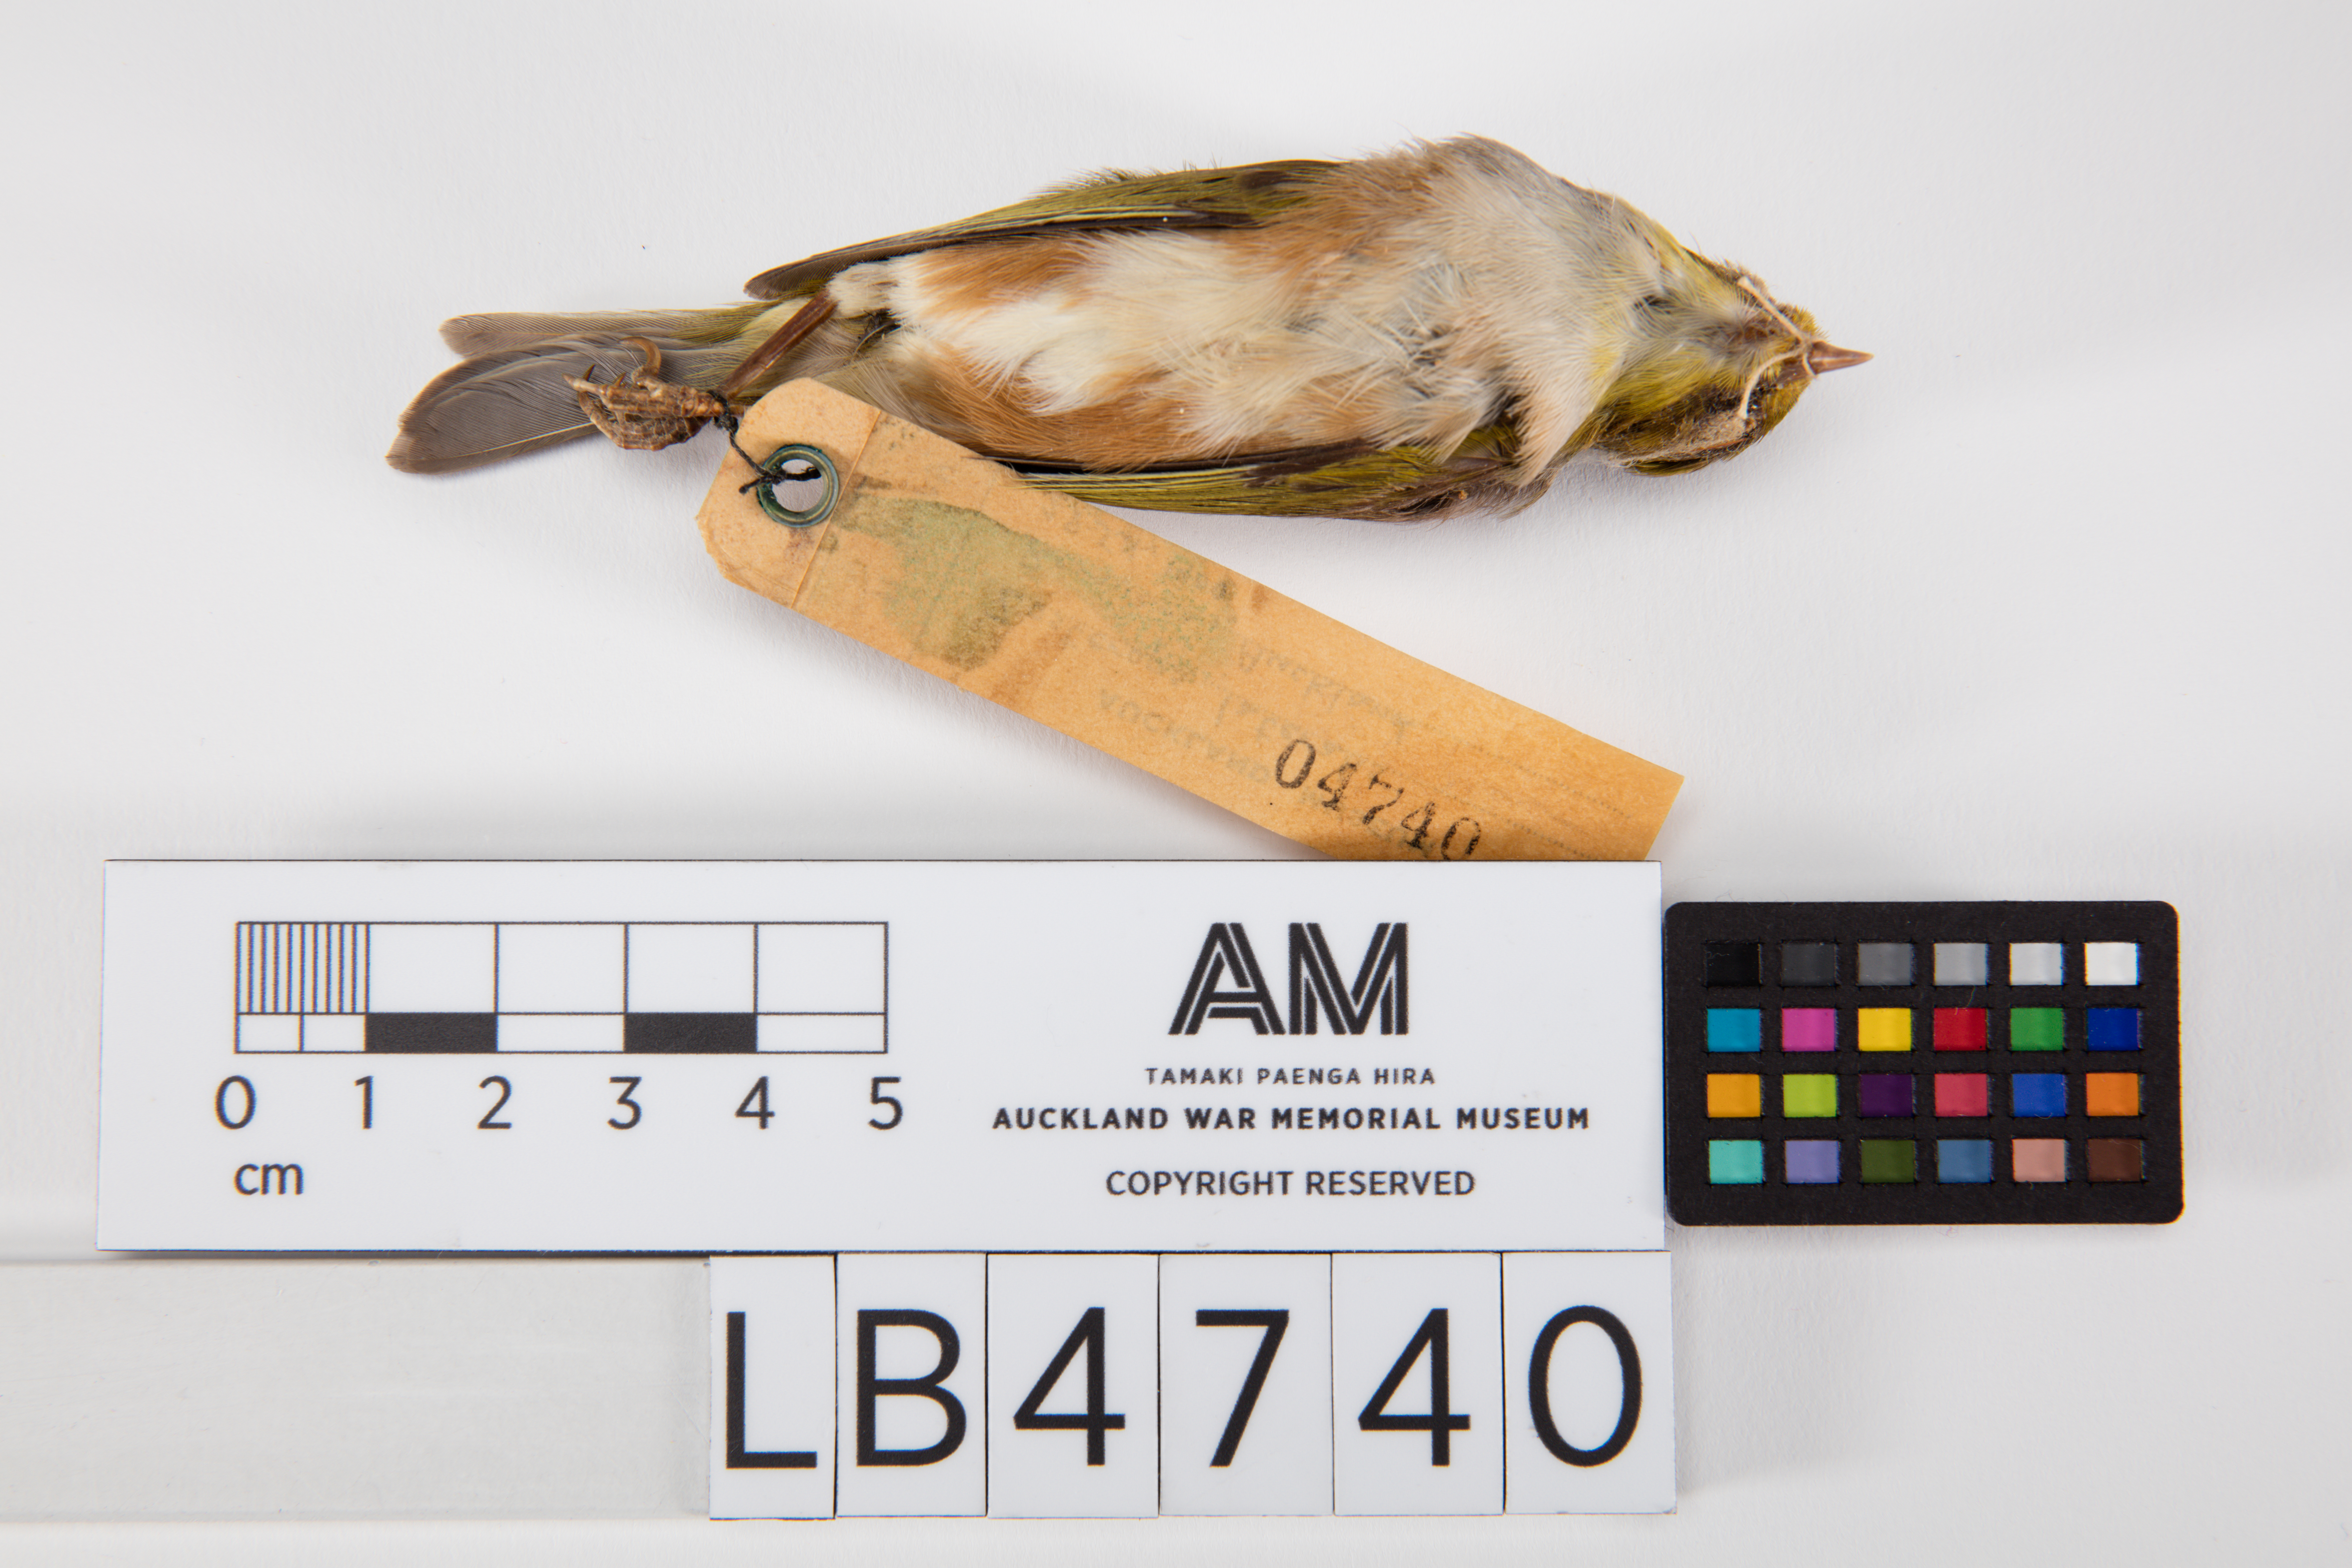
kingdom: Animalia
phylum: Chordata
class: Aves
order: Passeriformes
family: Zosteropidae
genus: Zosterops
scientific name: Zosterops lateralis
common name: Silvereye
